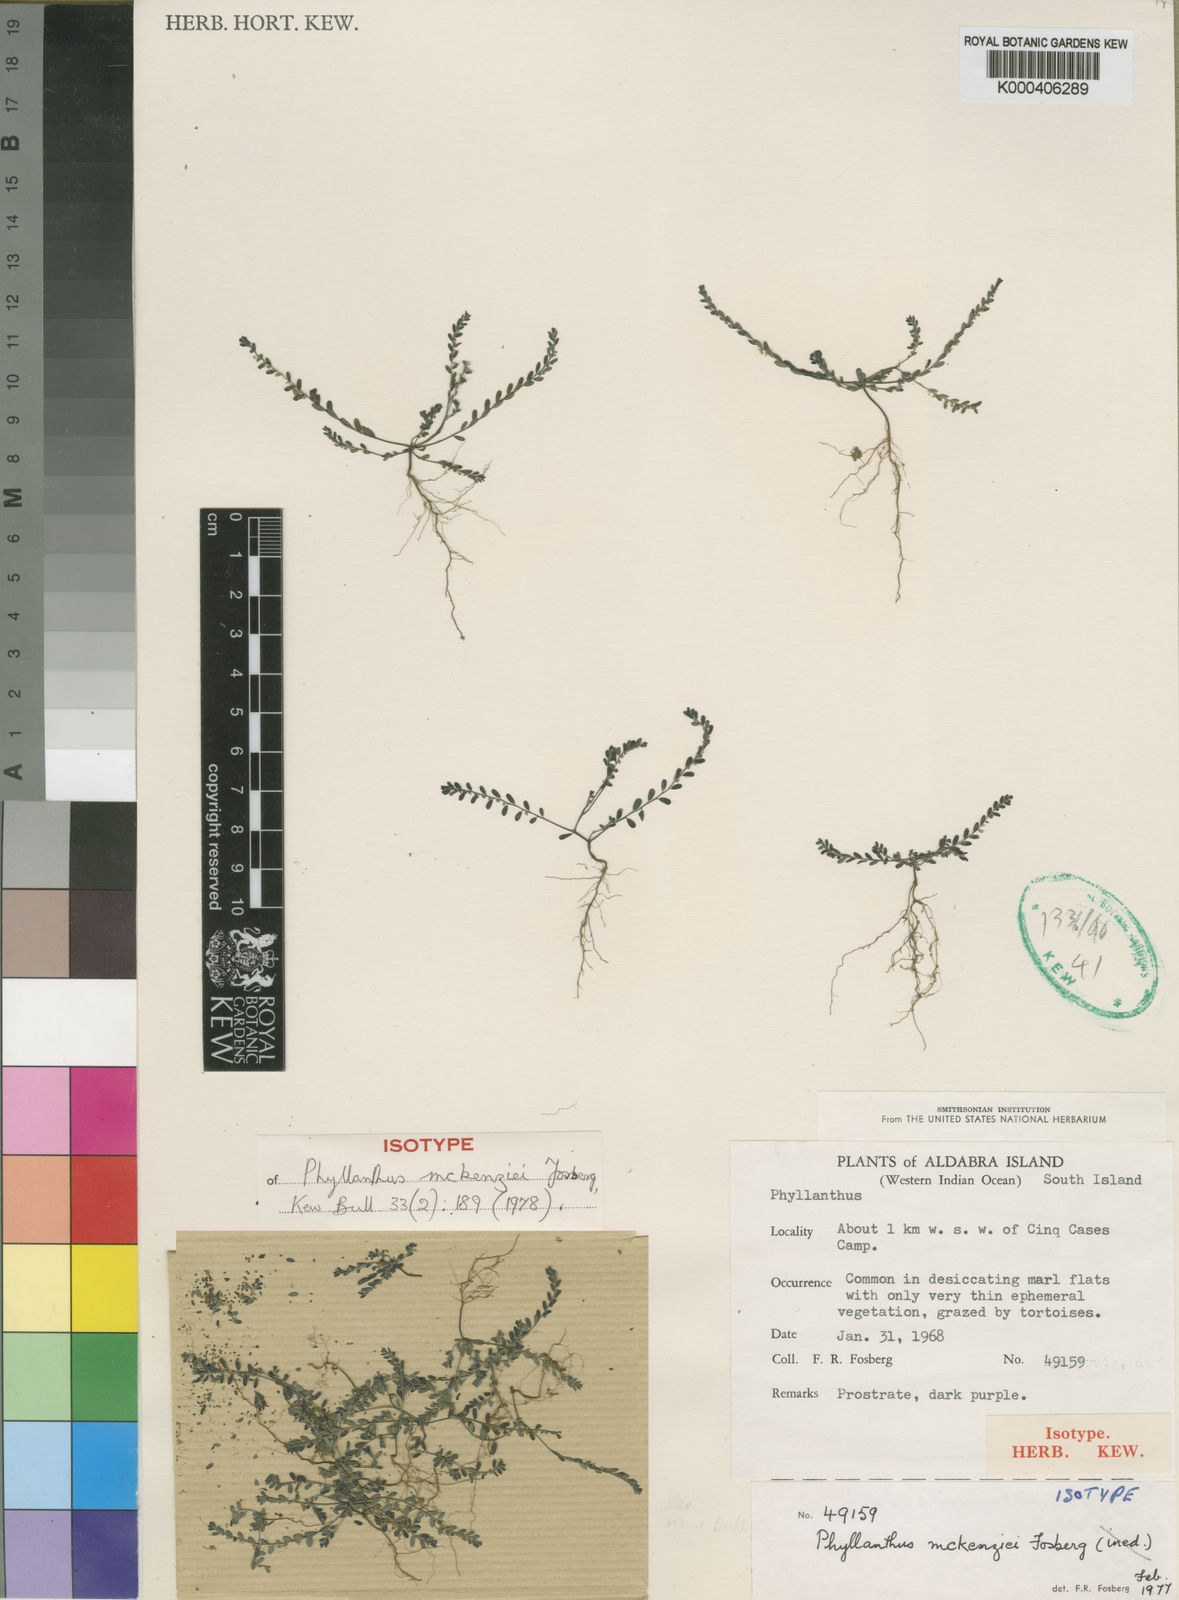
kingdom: Plantae
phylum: Tracheophyta
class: Magnoliopsida
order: Malpighiales
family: Phyllanthaceae
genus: Phyllanthus
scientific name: Phyllanthus mckenziei
